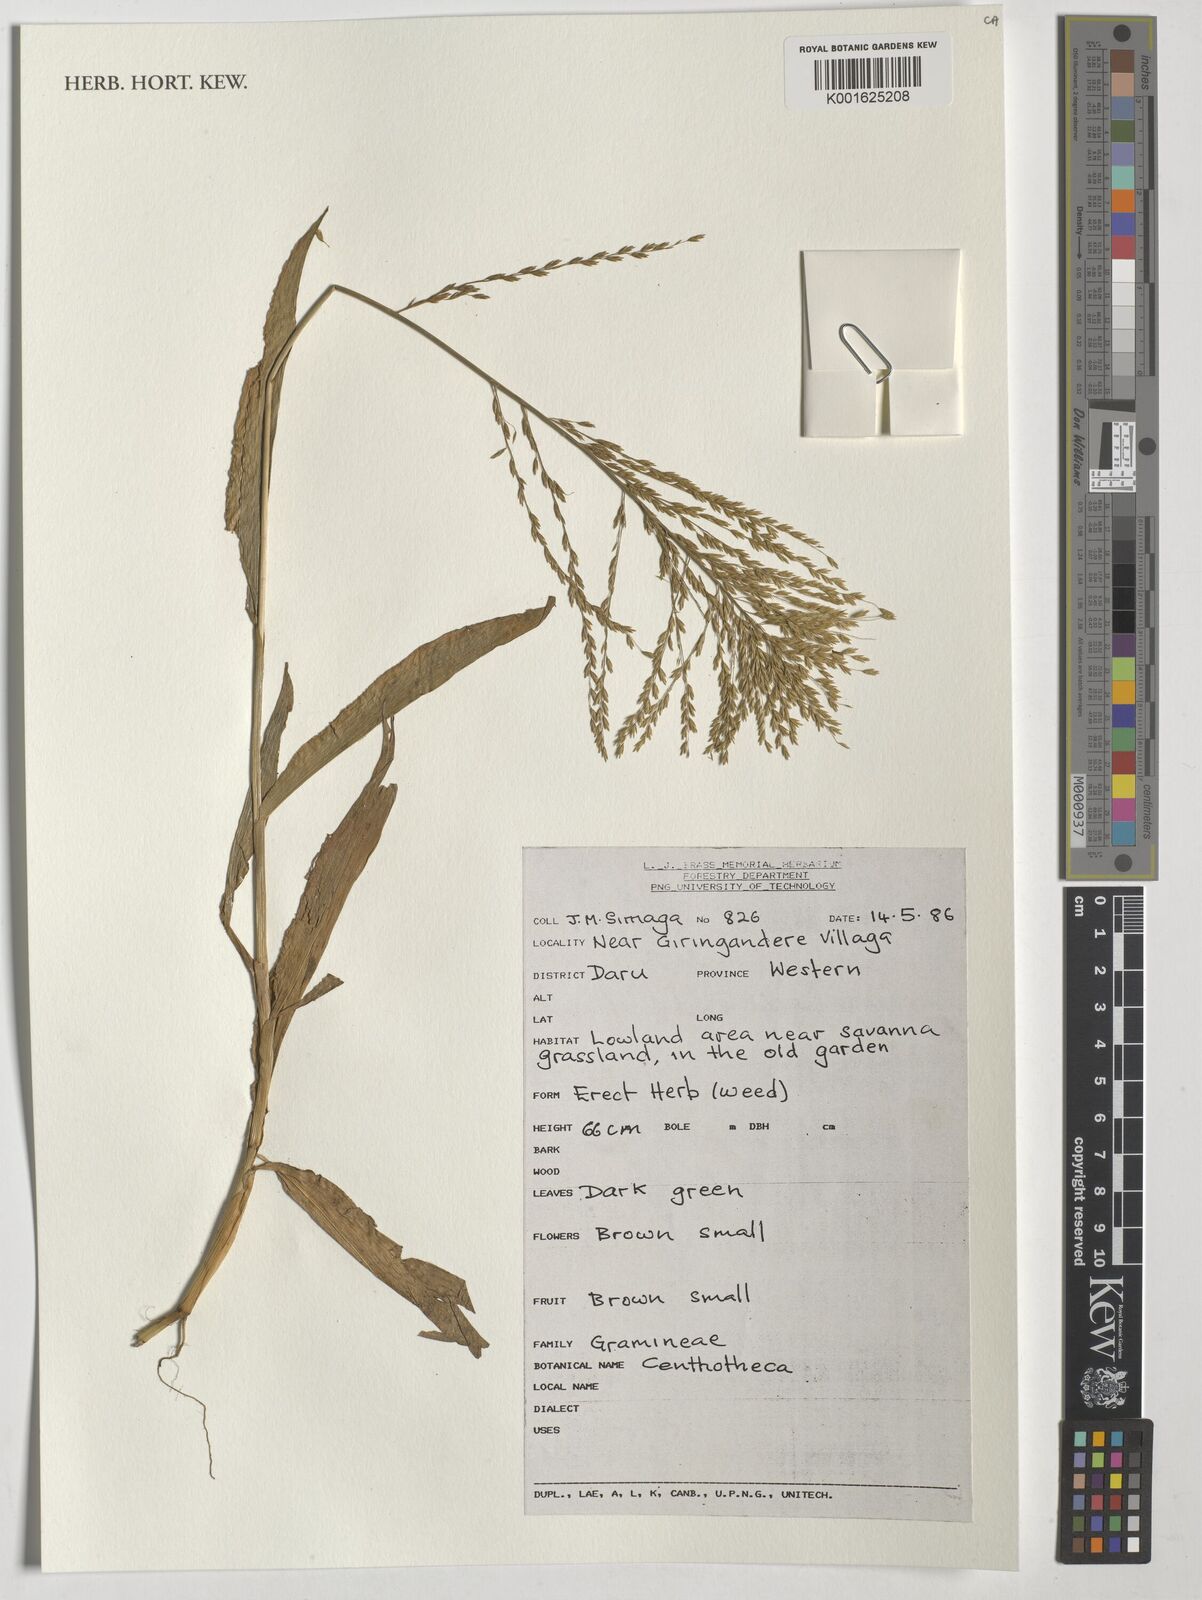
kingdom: Plantae
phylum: Tracheophyta
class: Liliopsida
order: Poales
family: Poaceae
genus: Centotheca
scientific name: Centotheca
